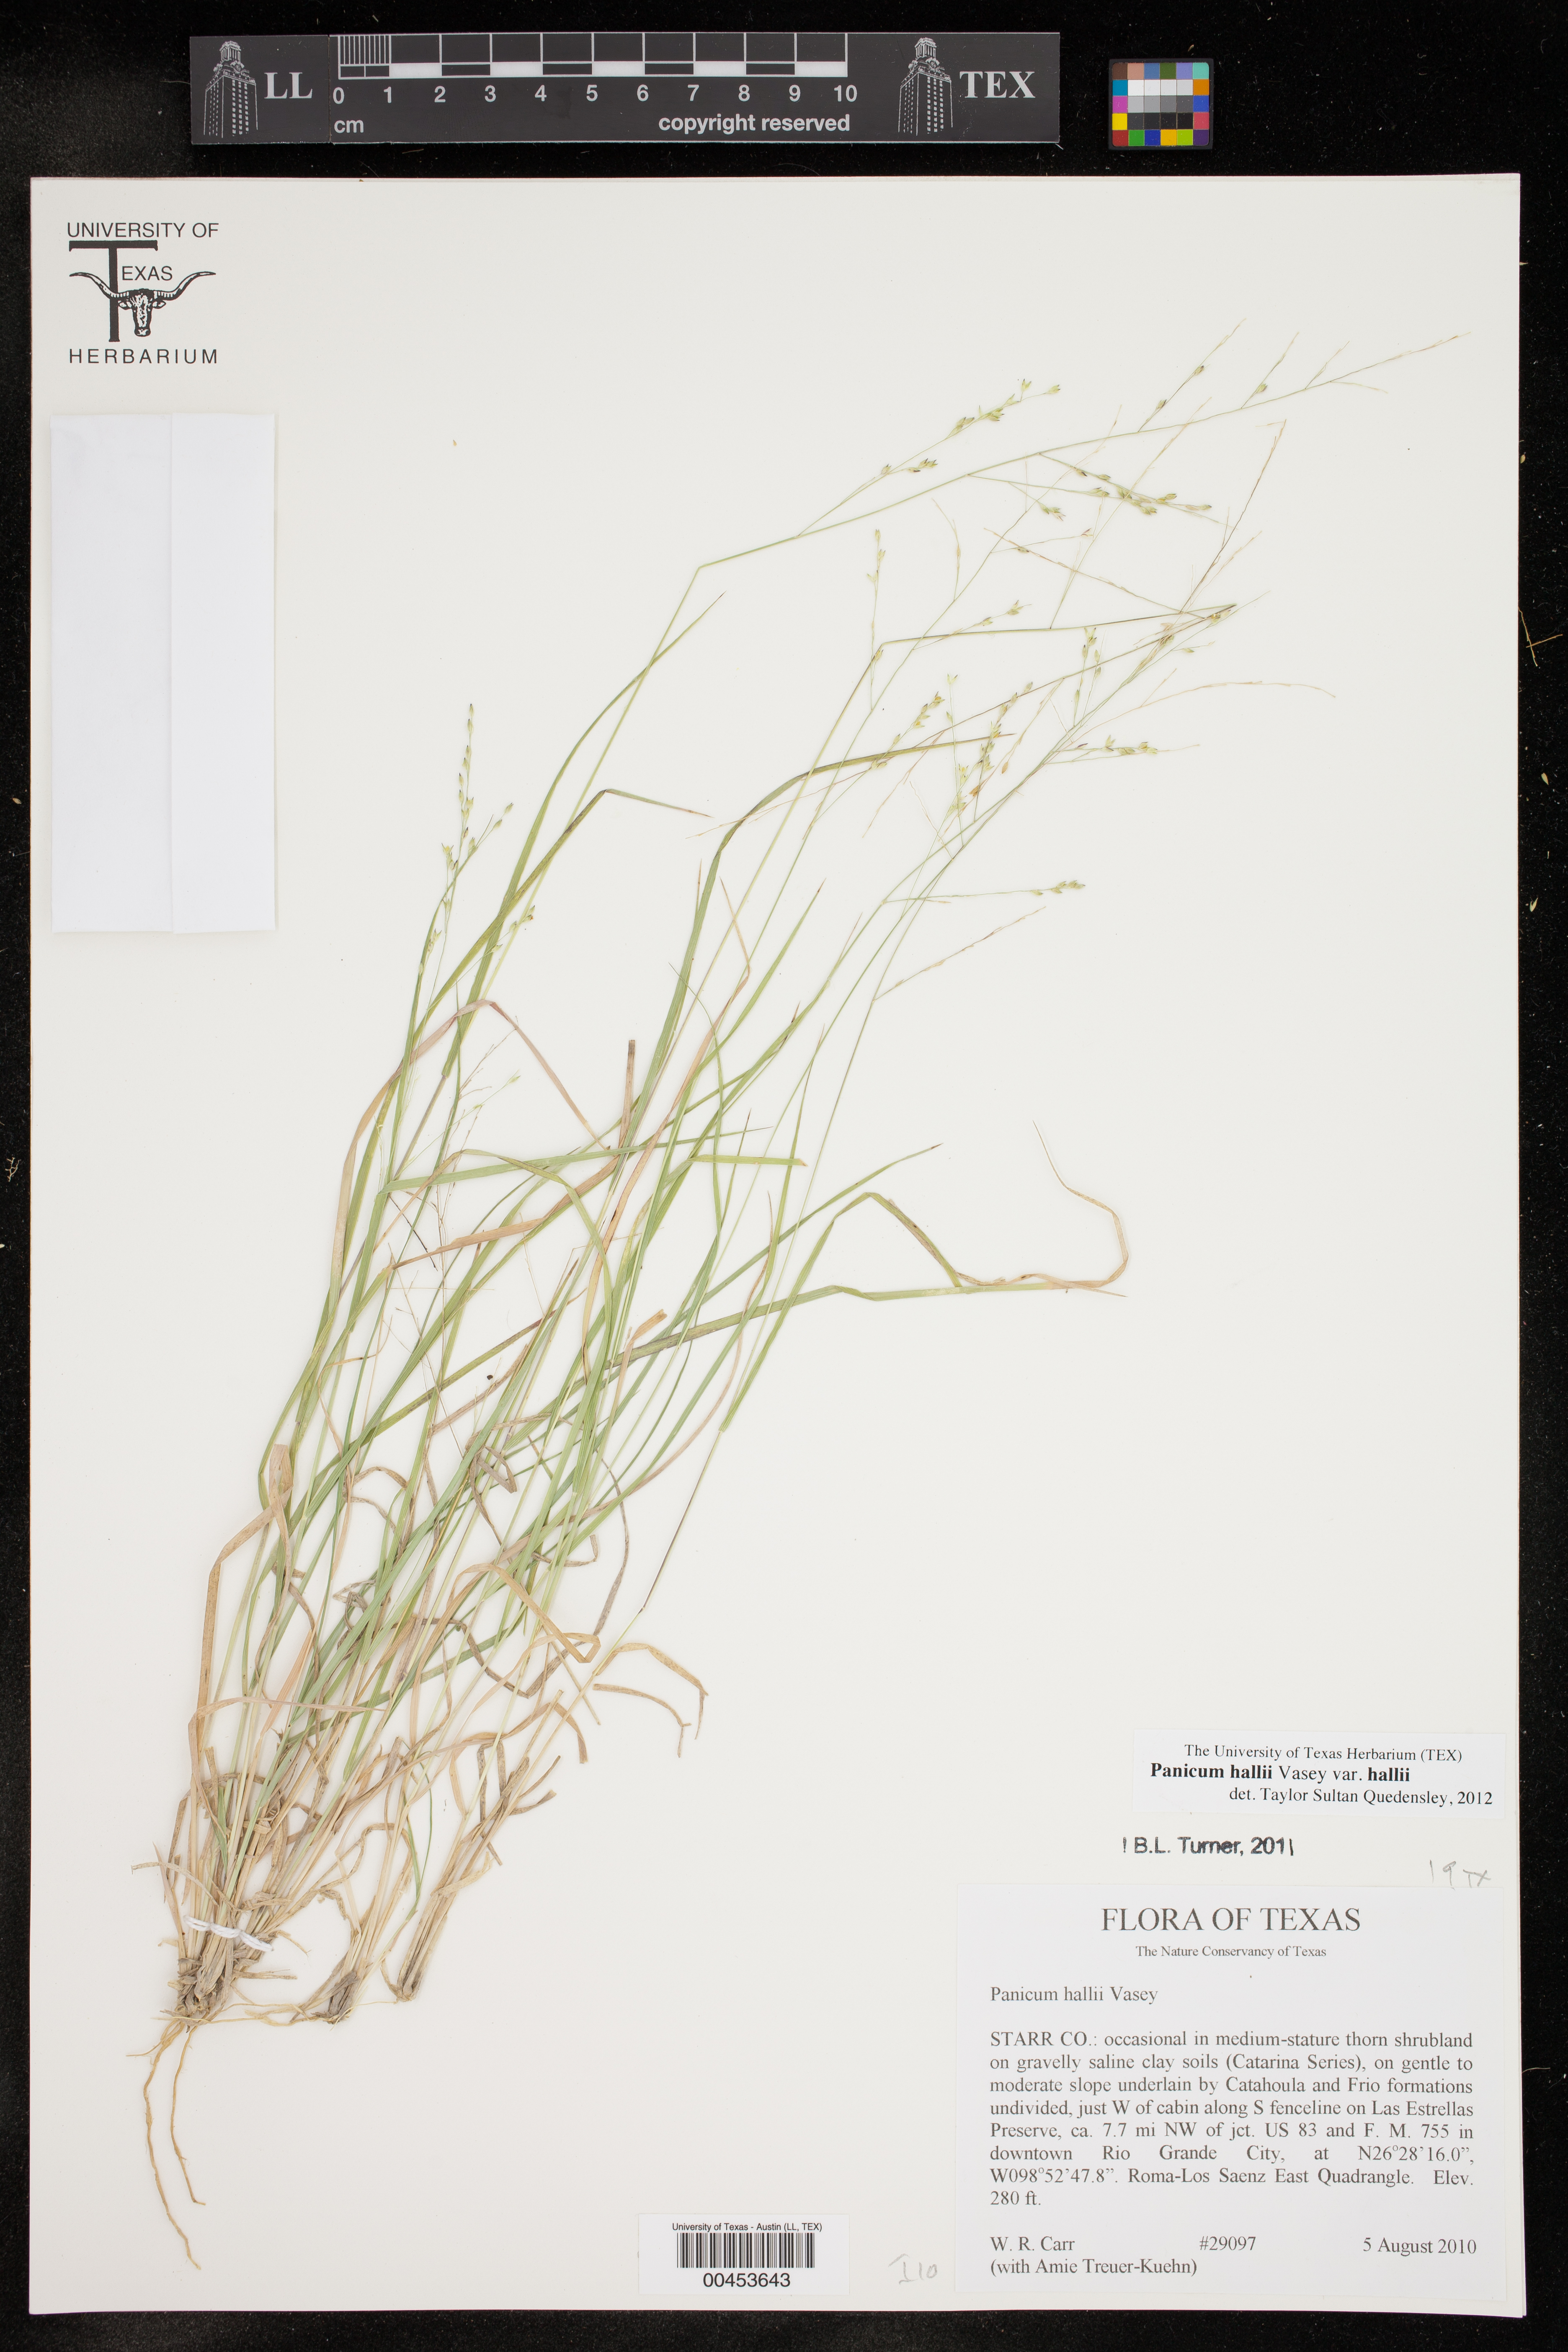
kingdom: Plantae
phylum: Tracheophyta
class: Liliopsida
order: Poales
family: Poaceae
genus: Panicum
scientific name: Panicum hallii
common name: Hall's witchgrass
